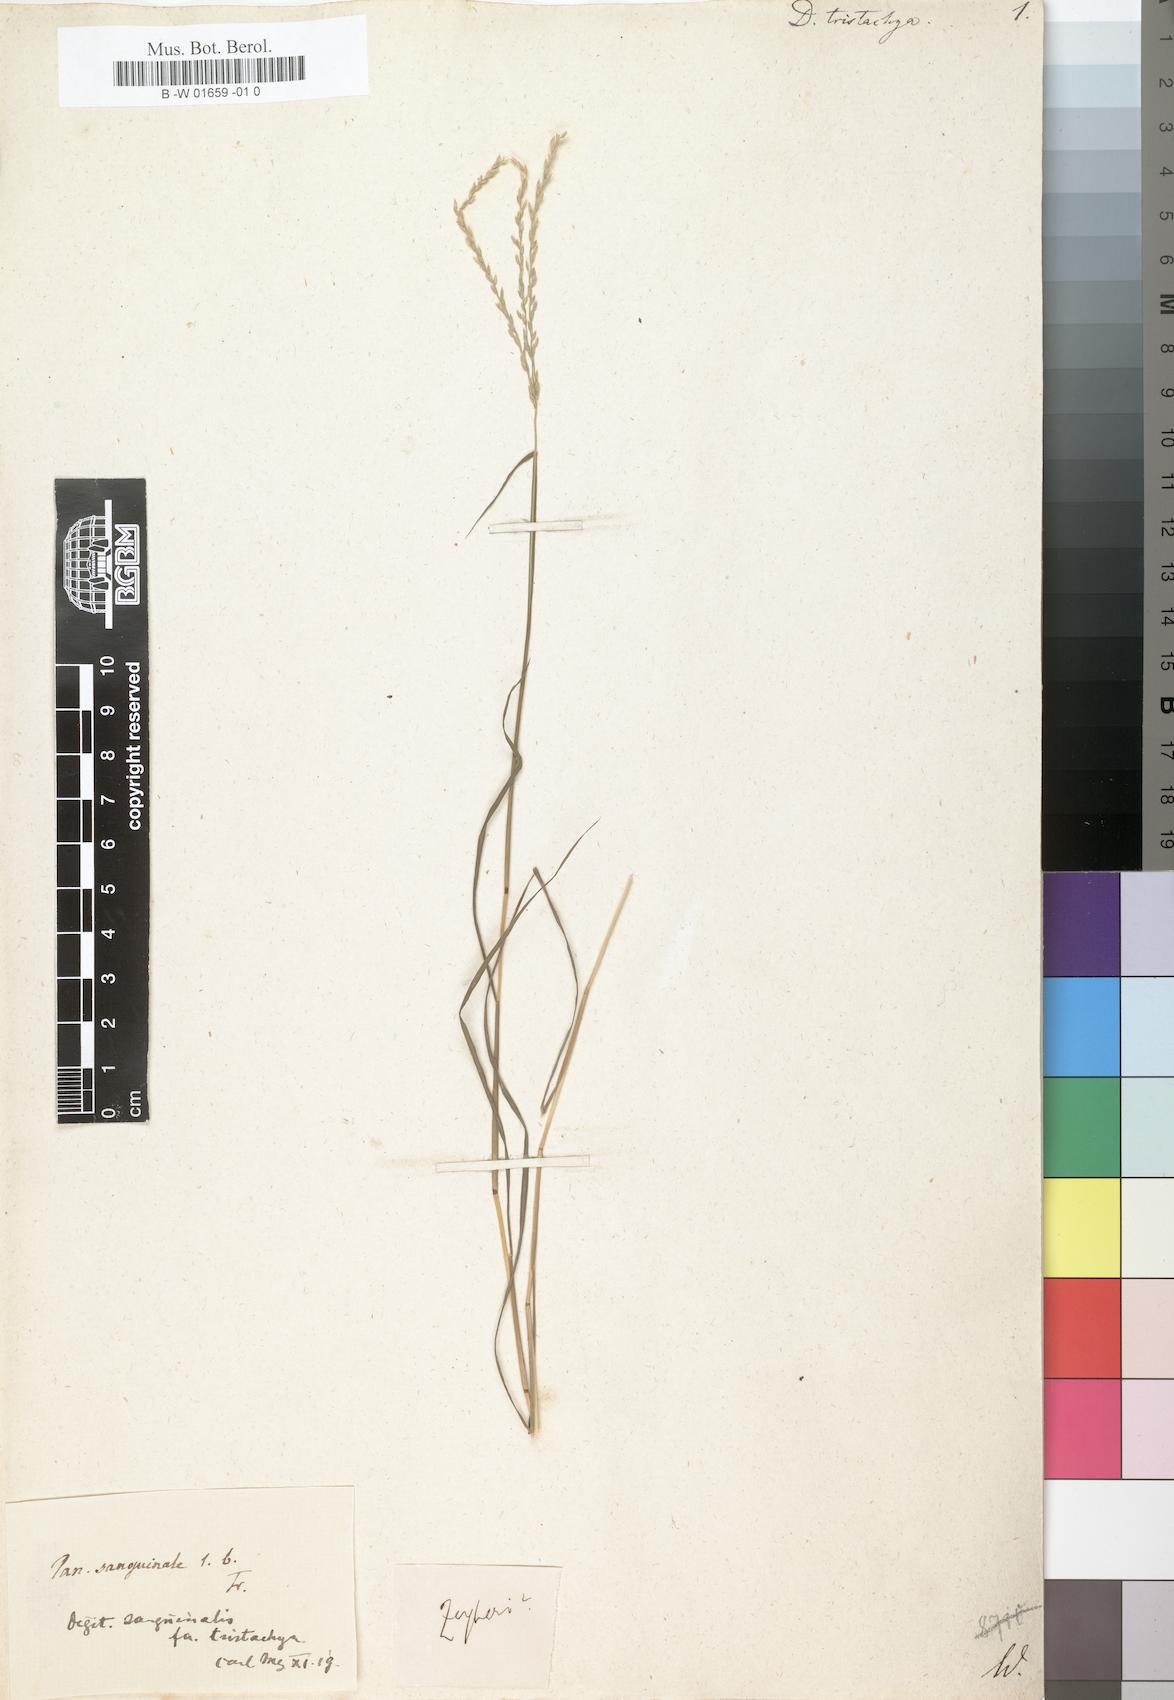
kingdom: Plantae
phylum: Tracheophyta
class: Liliopsida
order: Poales
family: Poaceae
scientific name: Poaceae
